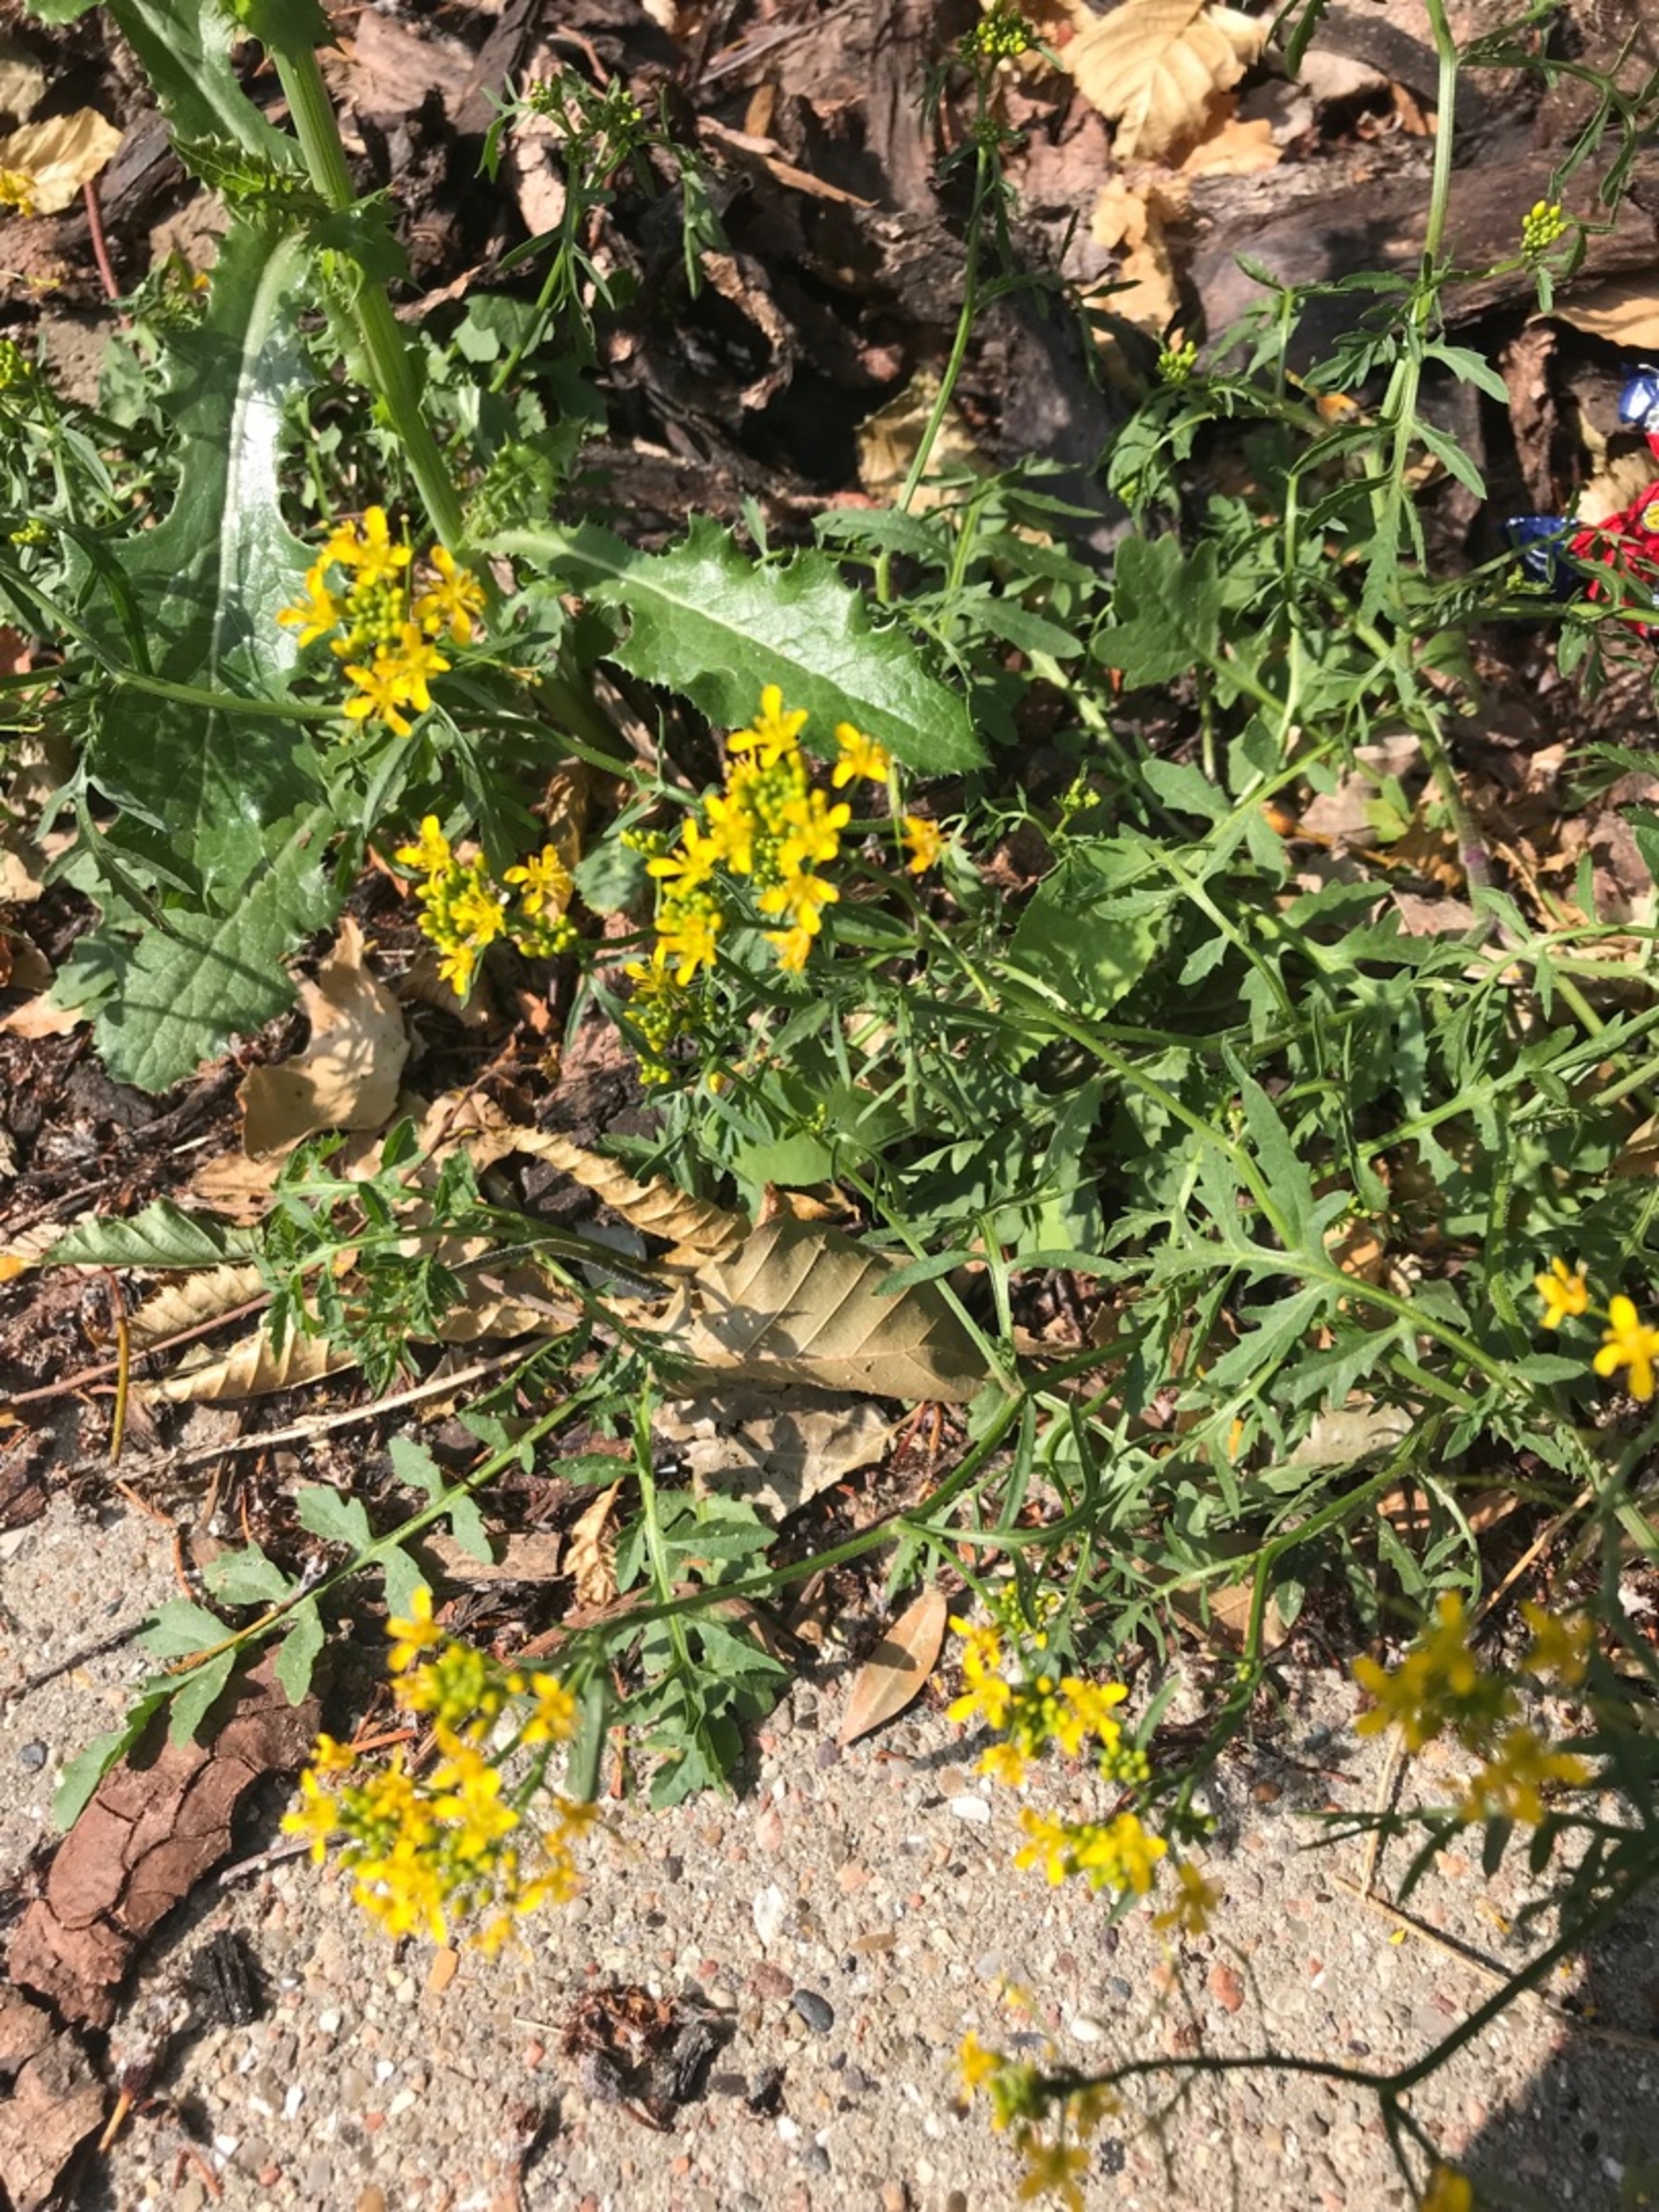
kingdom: Plantae
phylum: Tracheophyta
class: Magnoliopsida
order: Brassicales
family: Brassicaceae
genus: Rorippa
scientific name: Rorippa sylvestris
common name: Vej-guldkarse
